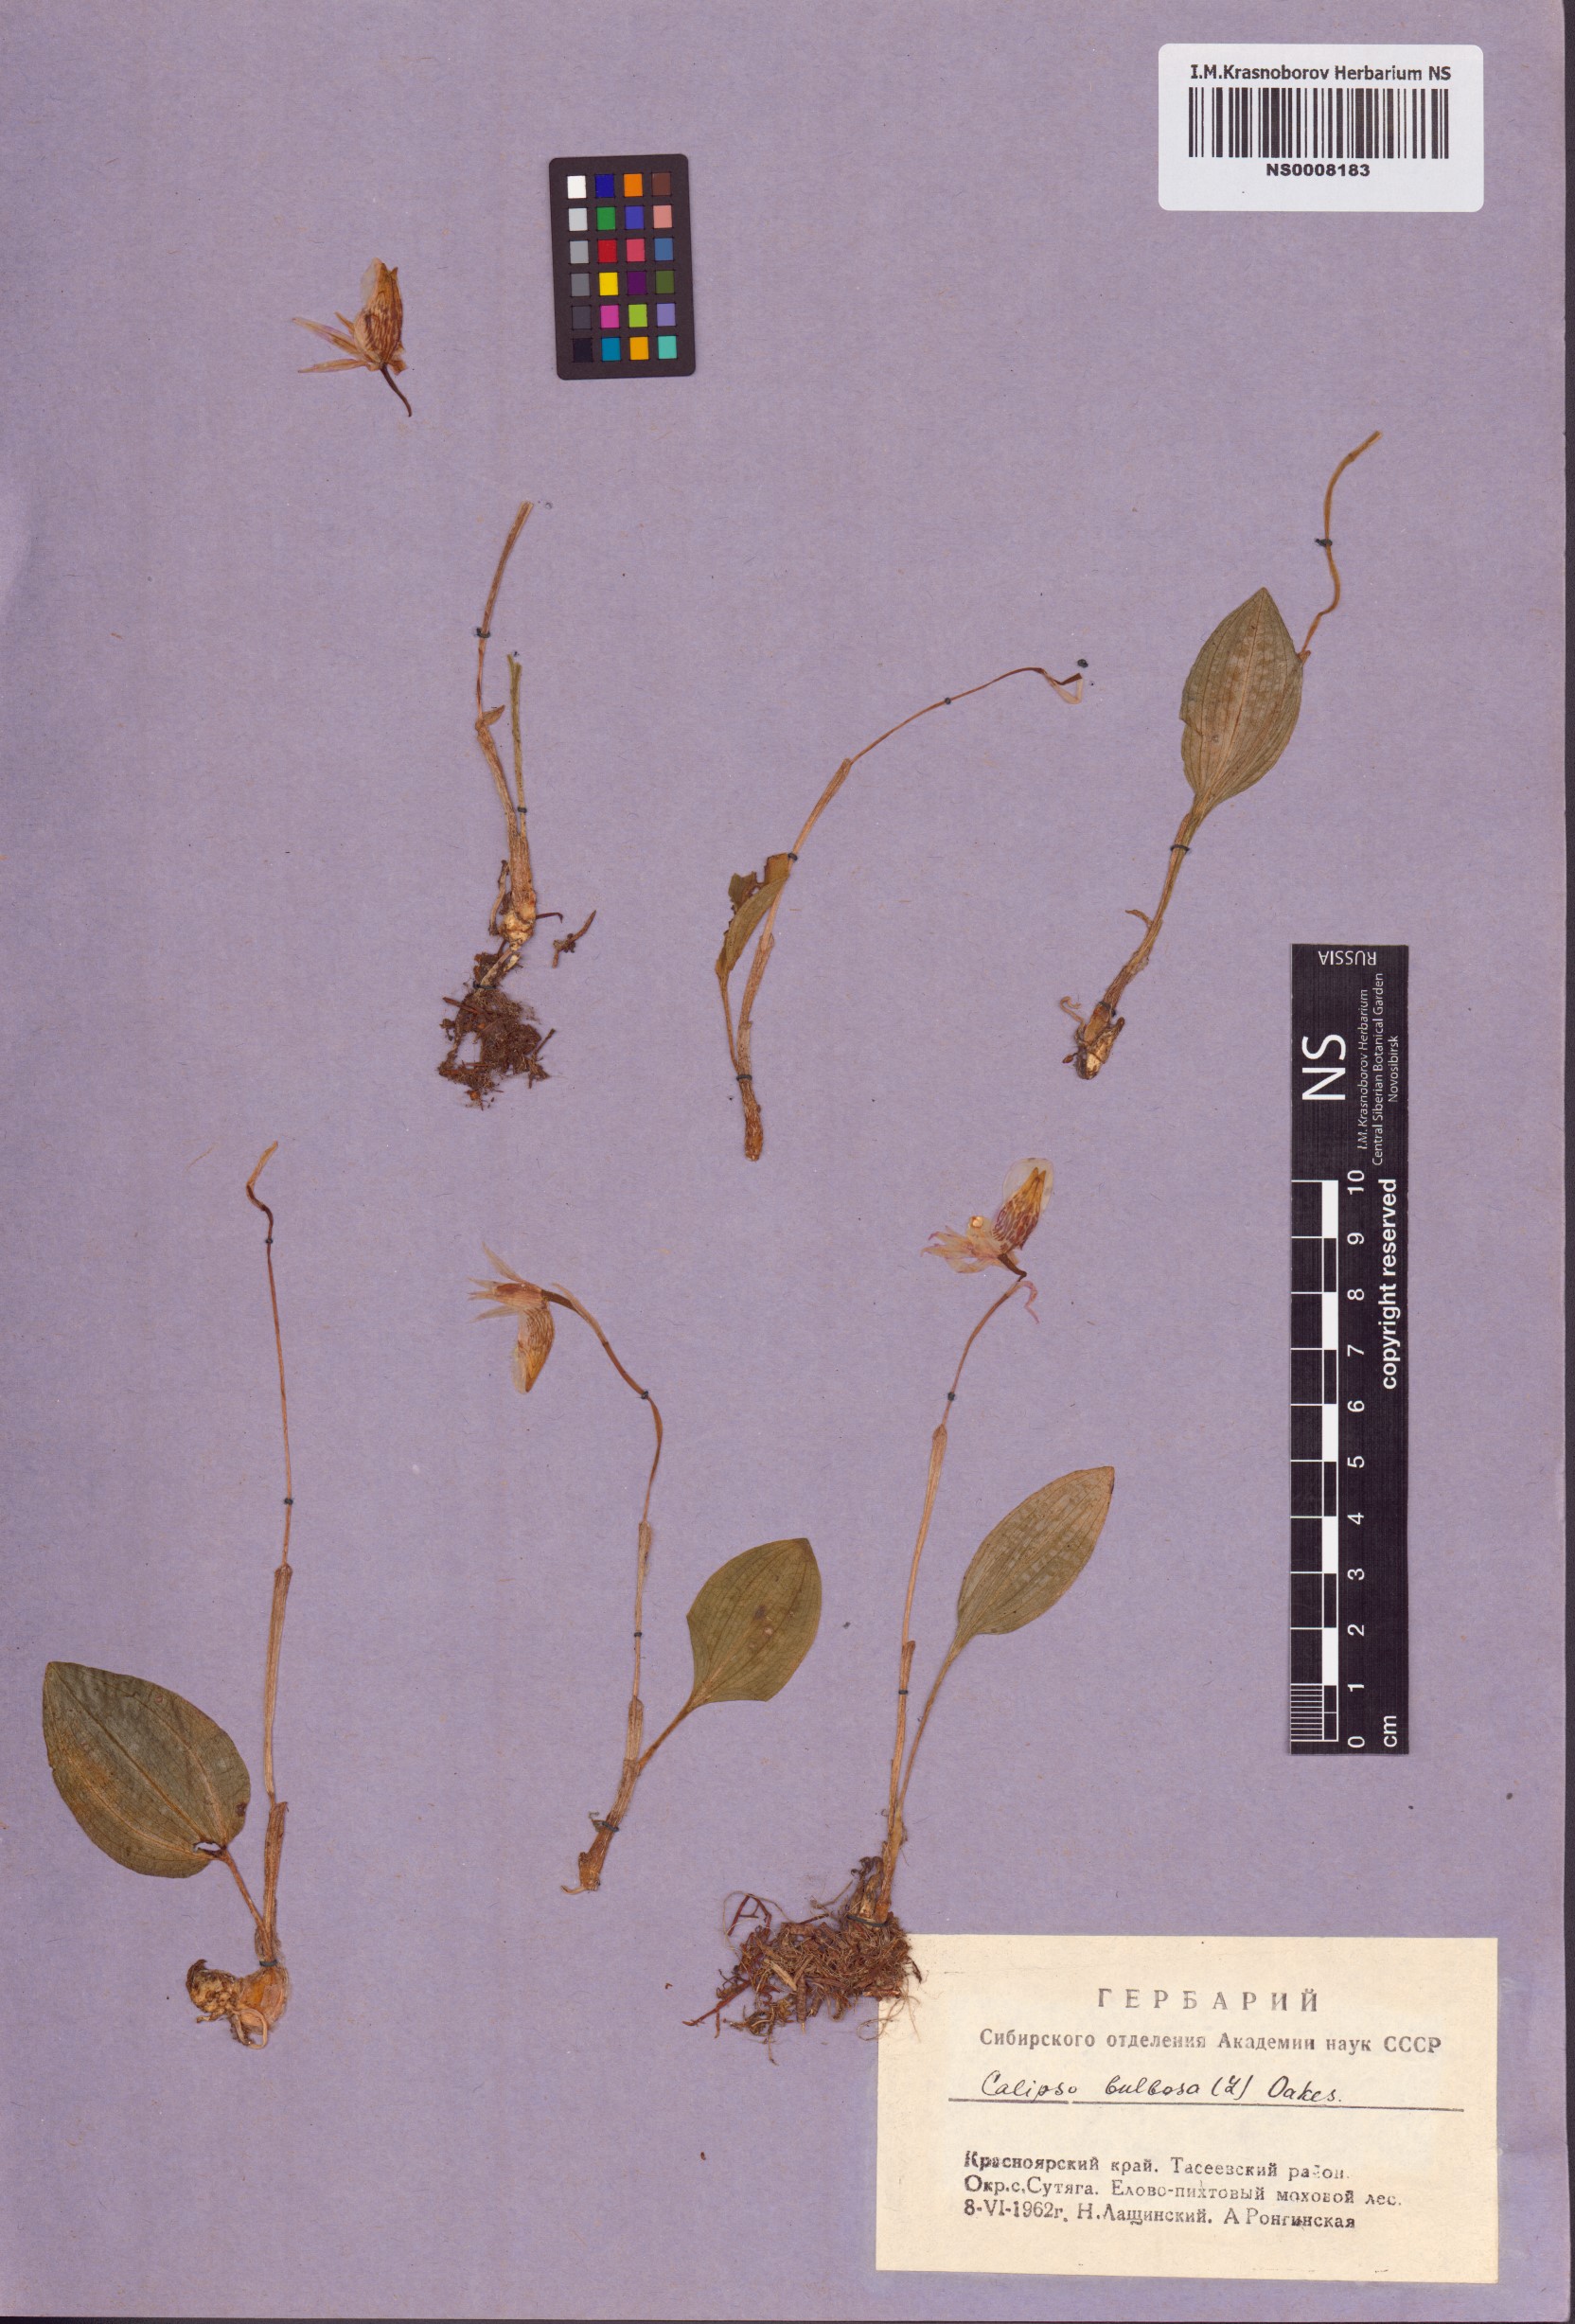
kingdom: Plantae
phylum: Tracheophyta
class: Liliopsida
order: Asparagales
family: Orchidaceae
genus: Calypso
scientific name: Calypso bulbosa
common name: Calypso
